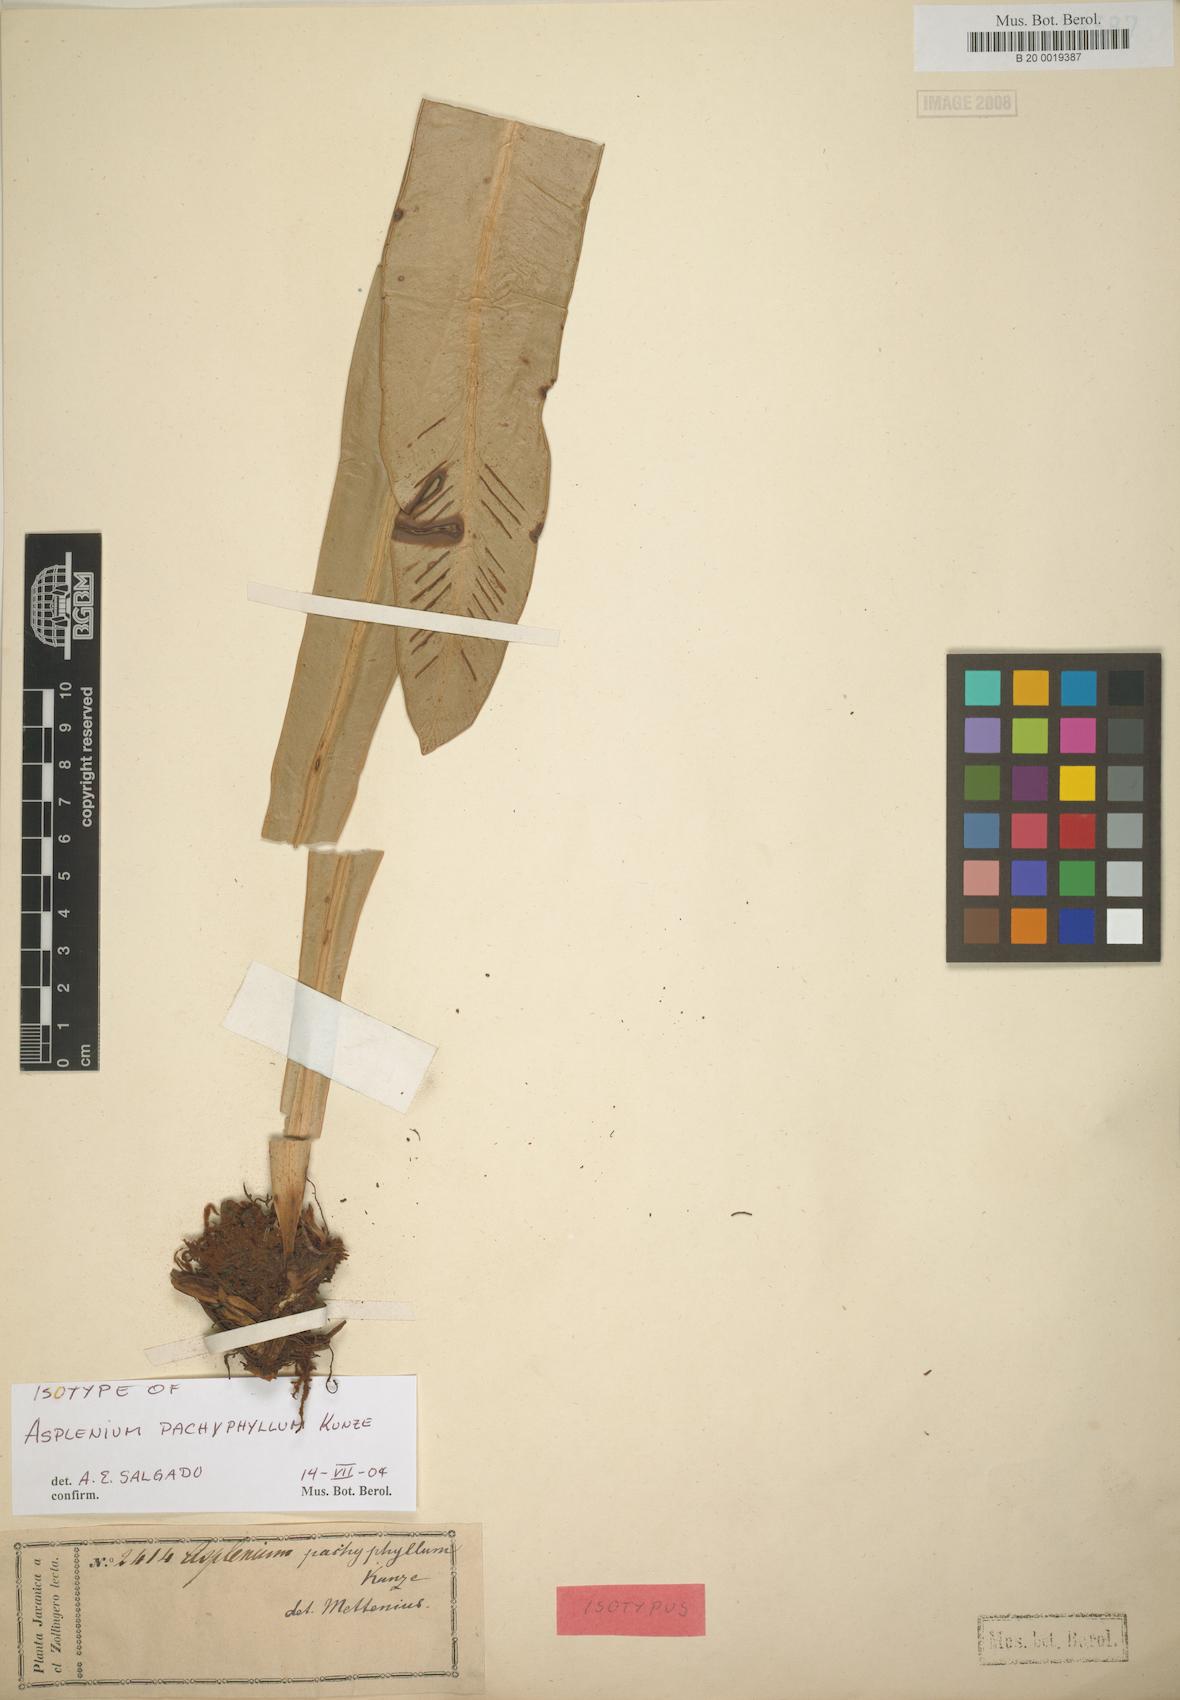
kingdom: Plantae
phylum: Tracheophyta
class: Polypodiopsida
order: Polypodiales
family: Aspleniaceae
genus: Asplenium
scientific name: Asplenium vittaeforme
